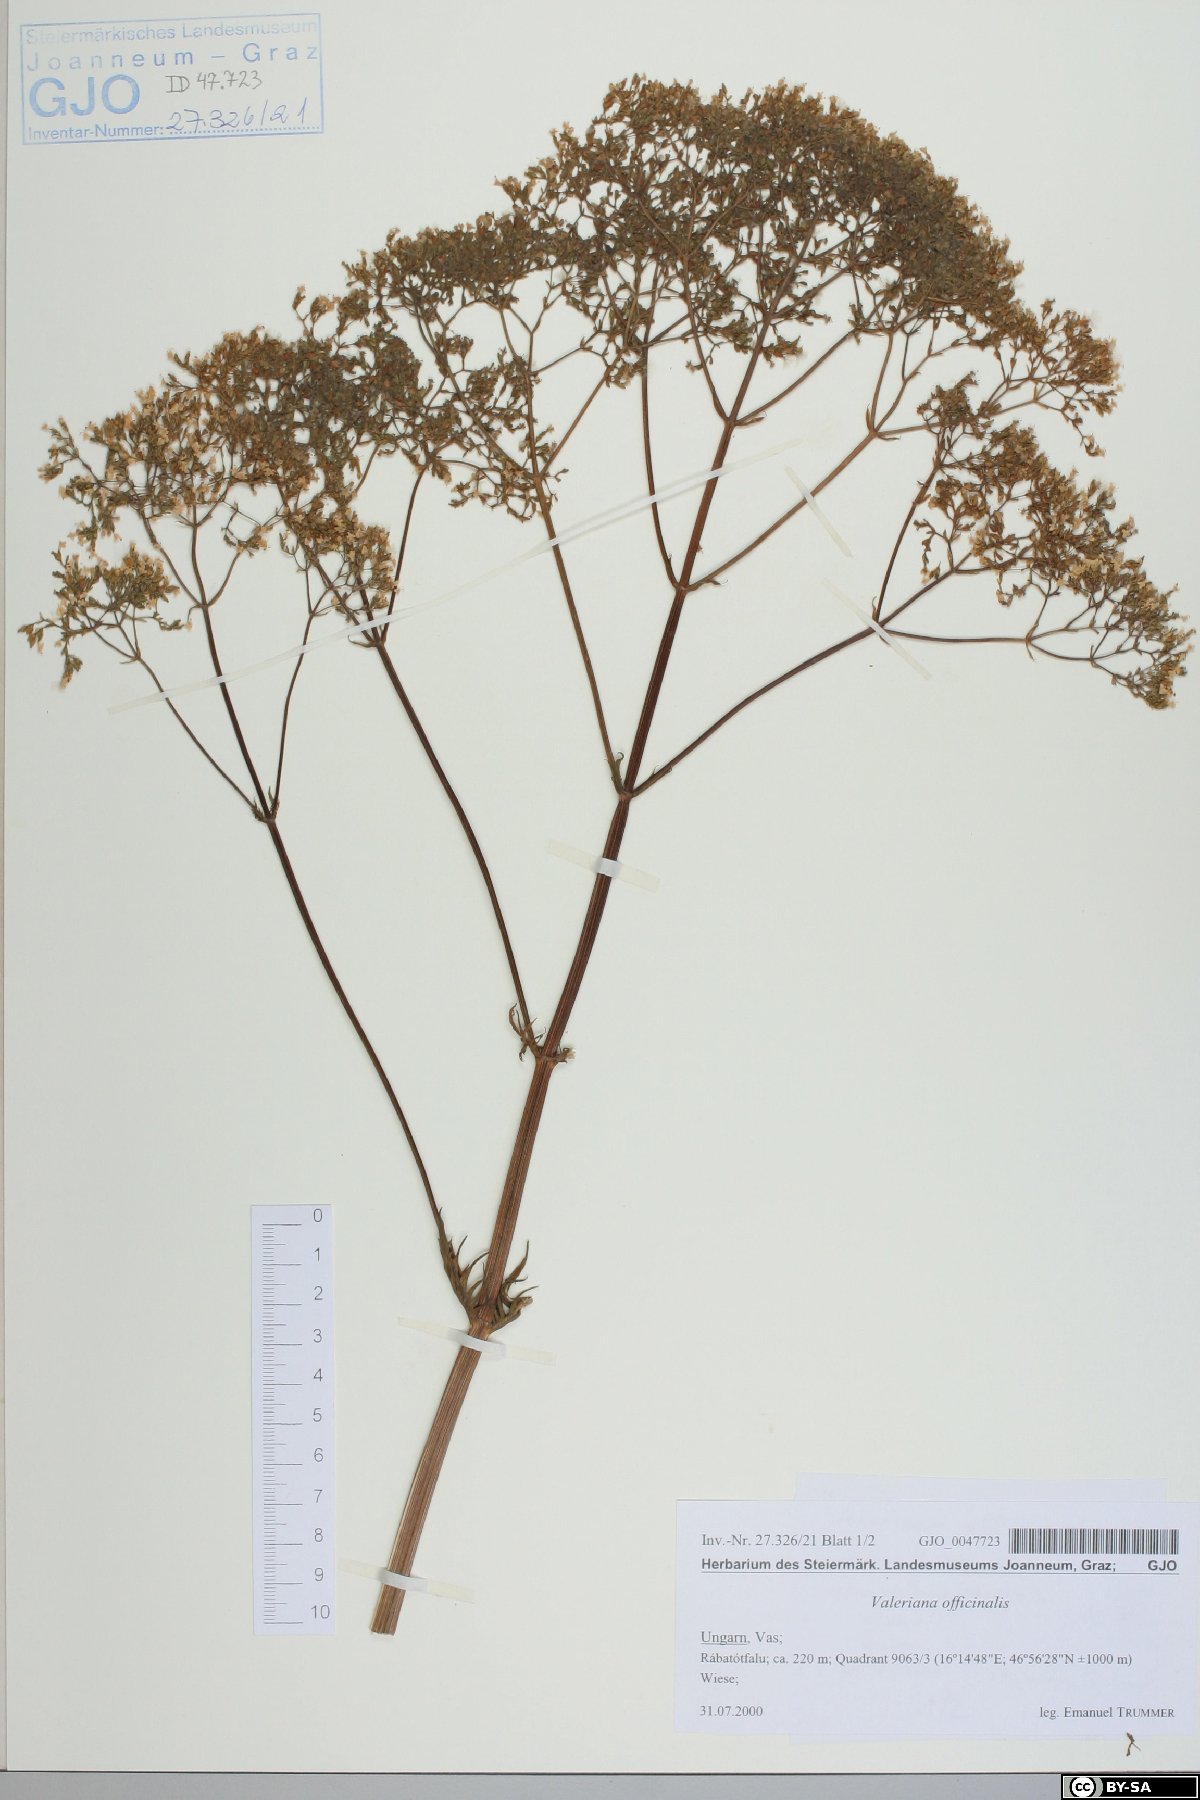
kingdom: Plantae
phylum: Tracheophyta
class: Magnoliopsida
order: Dipsacales
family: Caprifoliaceae
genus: Valeriana
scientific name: Valeriana officinalis
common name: Common valerian
